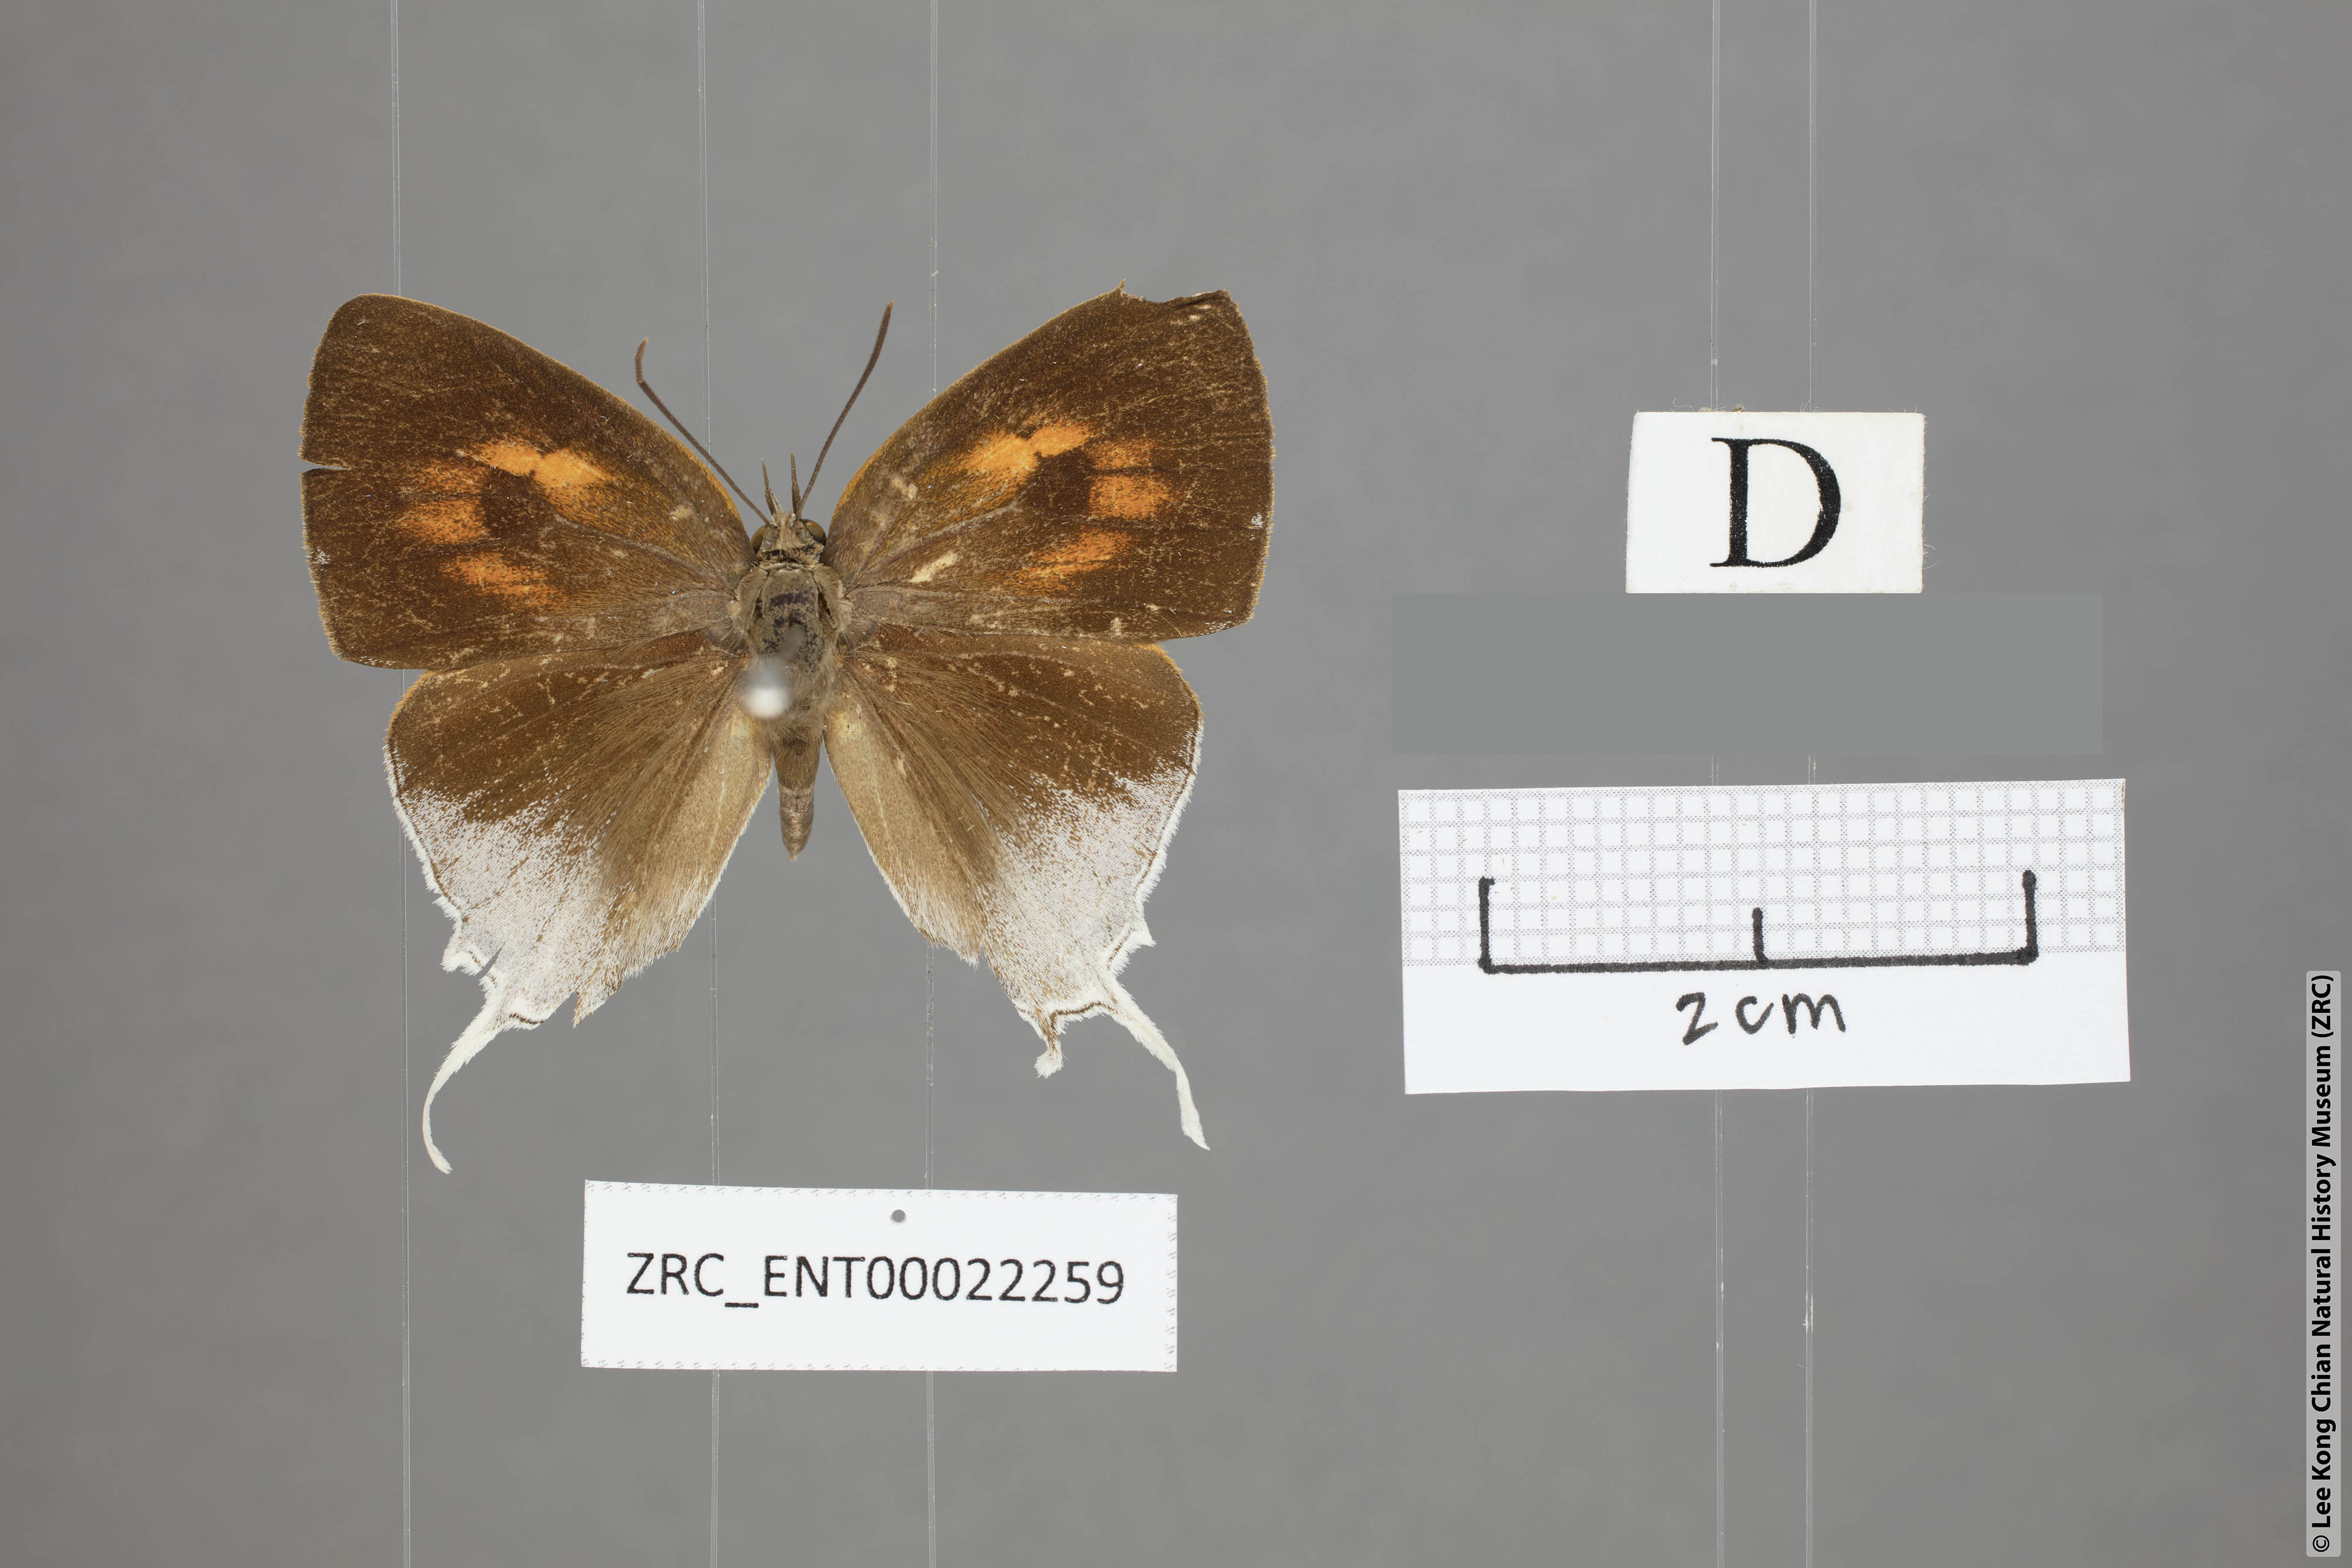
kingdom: Animalia
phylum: Arthropoda
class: Insecta
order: Lepidoptera
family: Lycaenidae
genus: Thamala
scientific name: Thamala marciana
